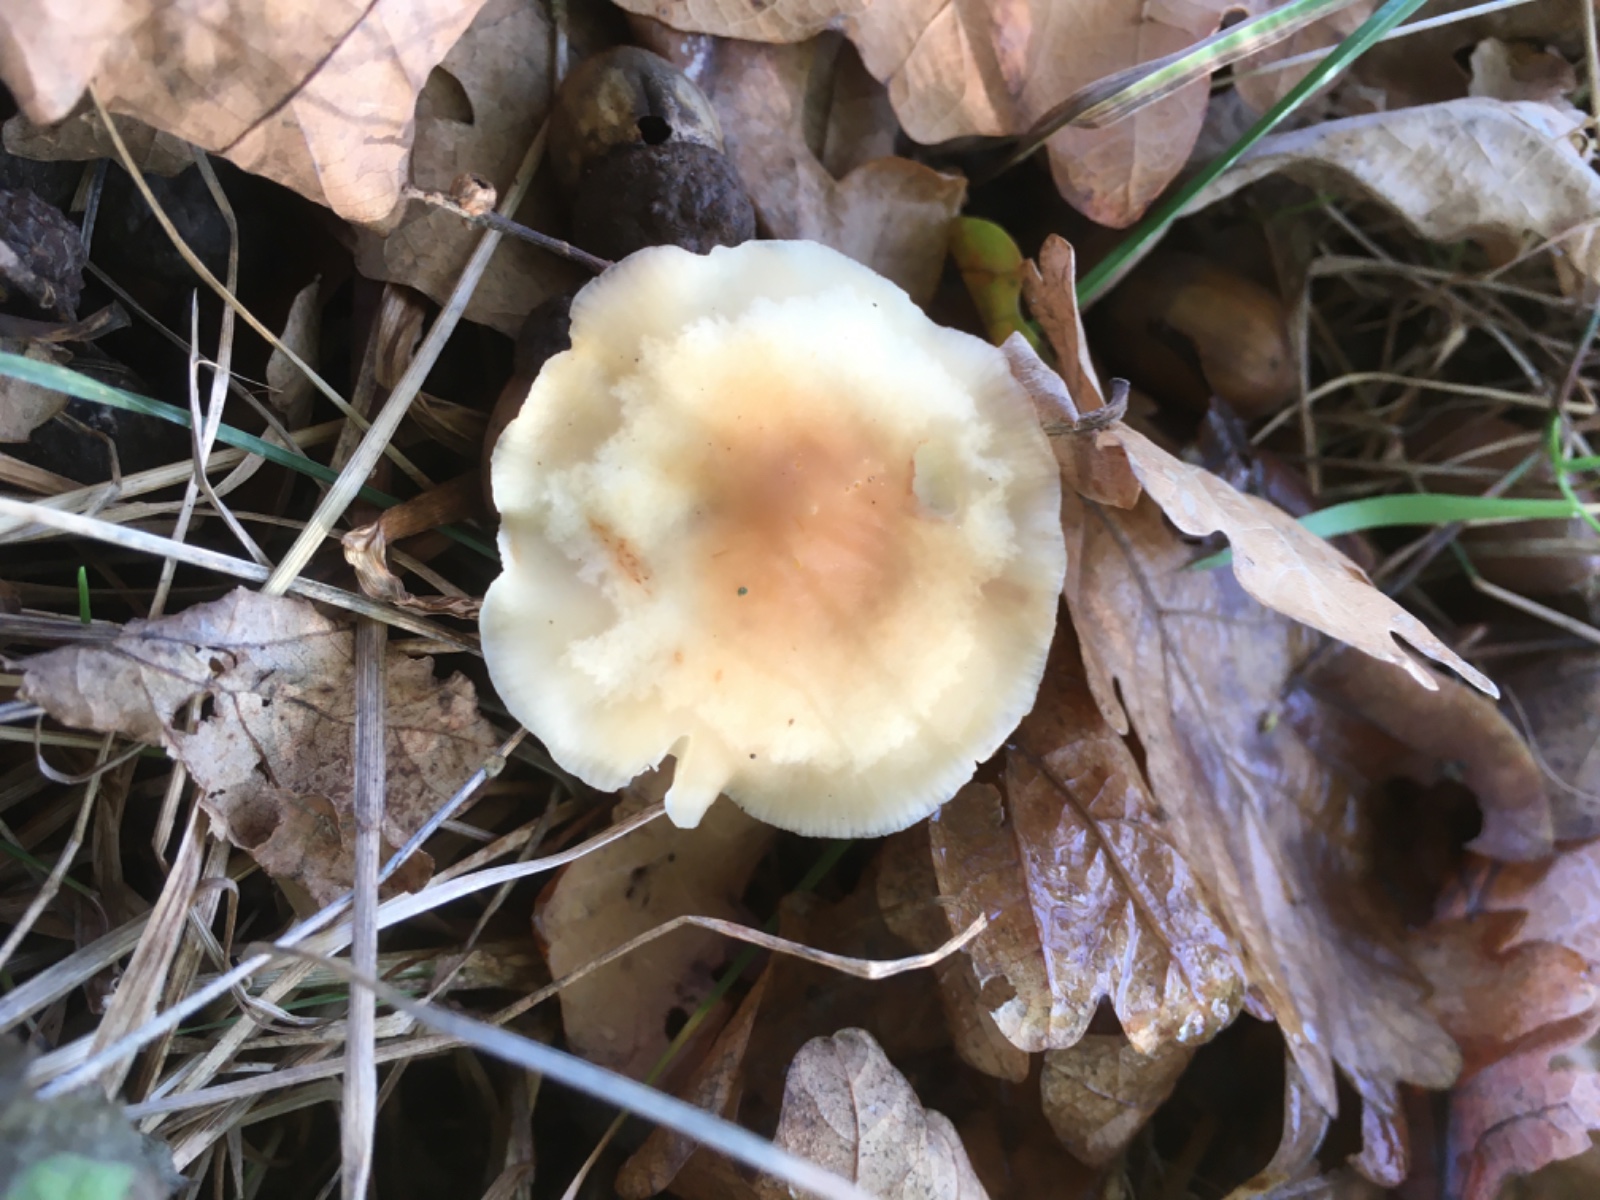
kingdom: Fungi
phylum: Basidiomycota
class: Agaricomycetes
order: Agaricales
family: Omphalotaceae
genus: Gymnopus
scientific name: Gymnopus dryophilus
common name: løv-fladhat
